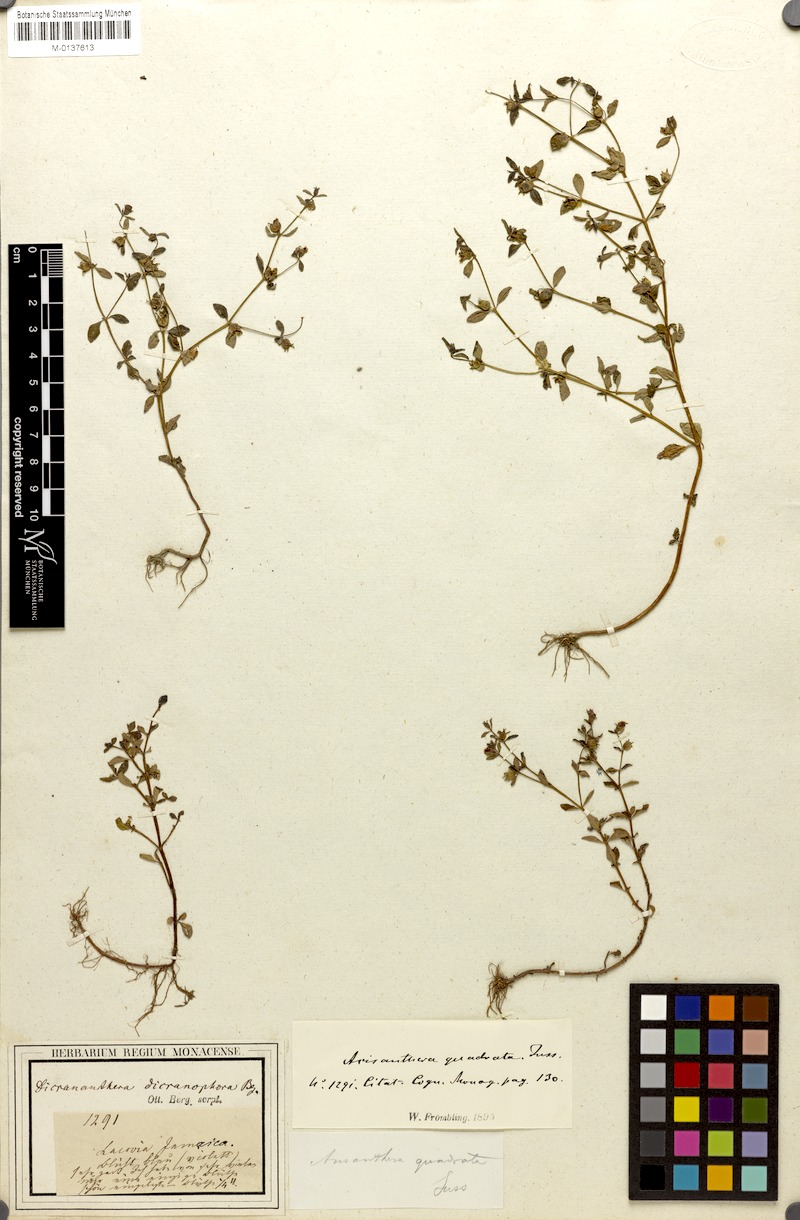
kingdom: Plantae
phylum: Tracheophyta
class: Magnoliopsida
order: Myrtales
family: Melastomataceae
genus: Acisanthera
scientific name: Acisanthera quadrata
